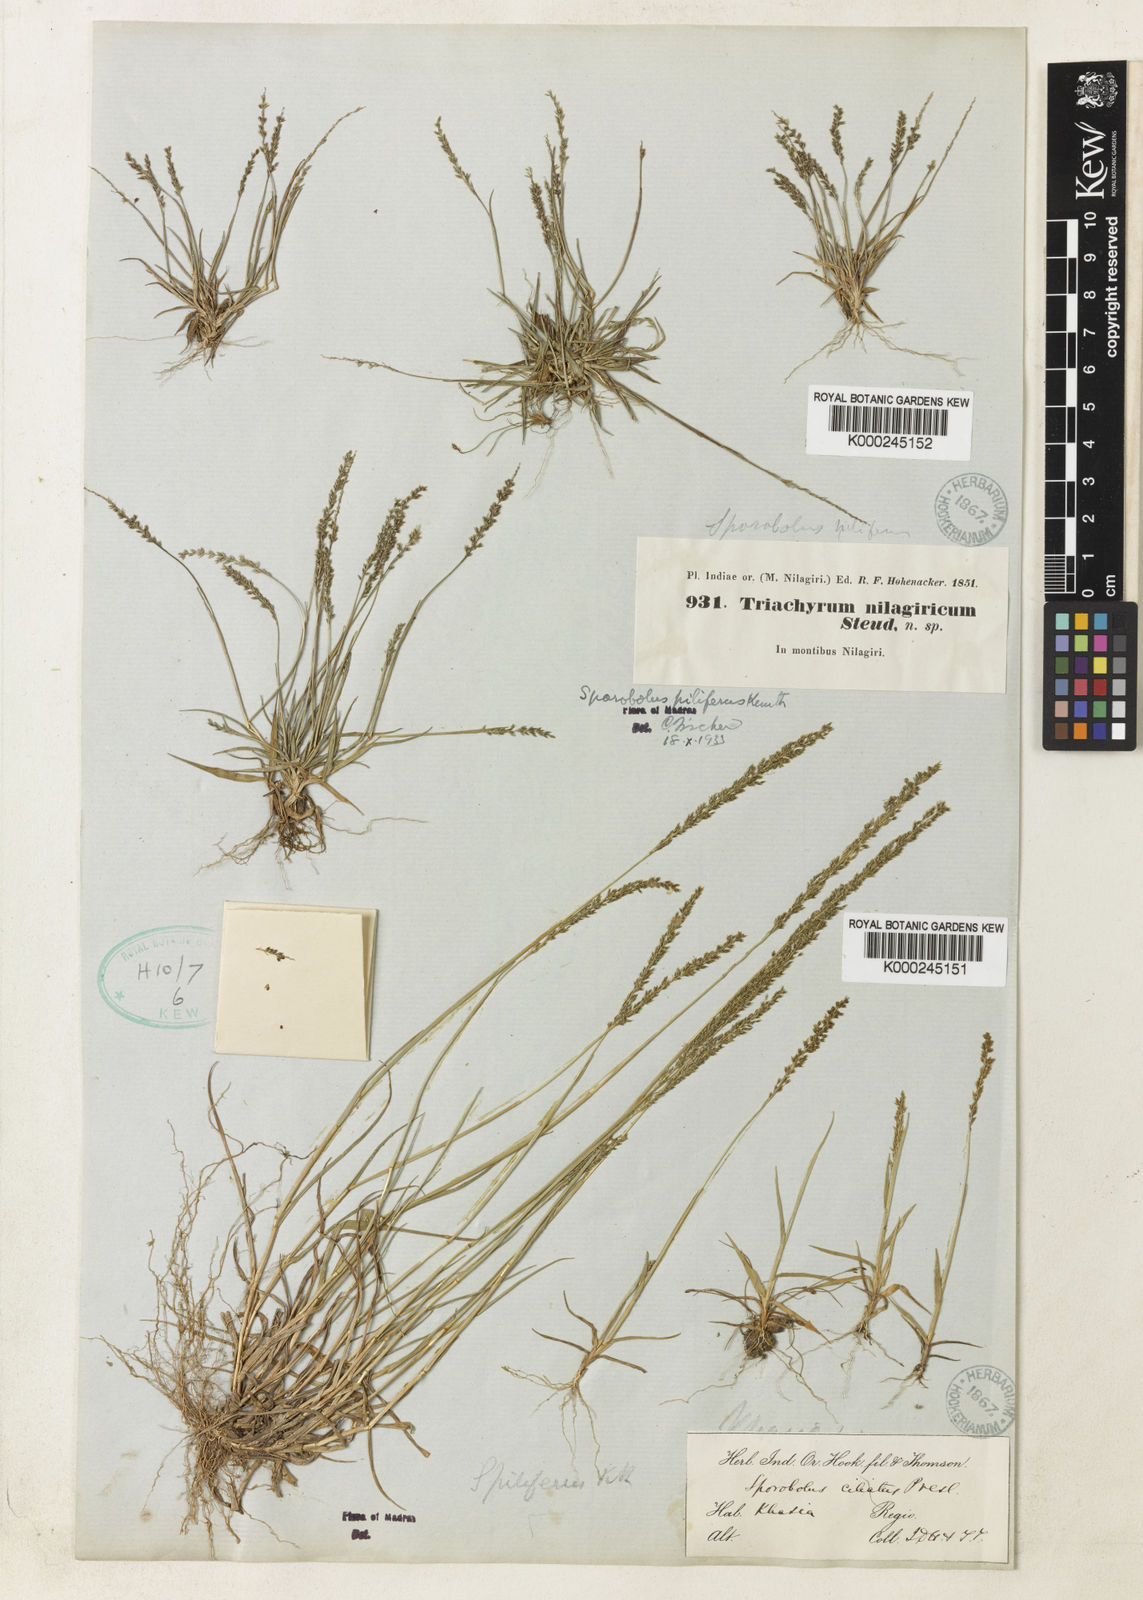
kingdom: Plantae
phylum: Tracheophyta
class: Liliopsida
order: Poales
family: Poaceae
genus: Sporobolus
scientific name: Sporobolus
